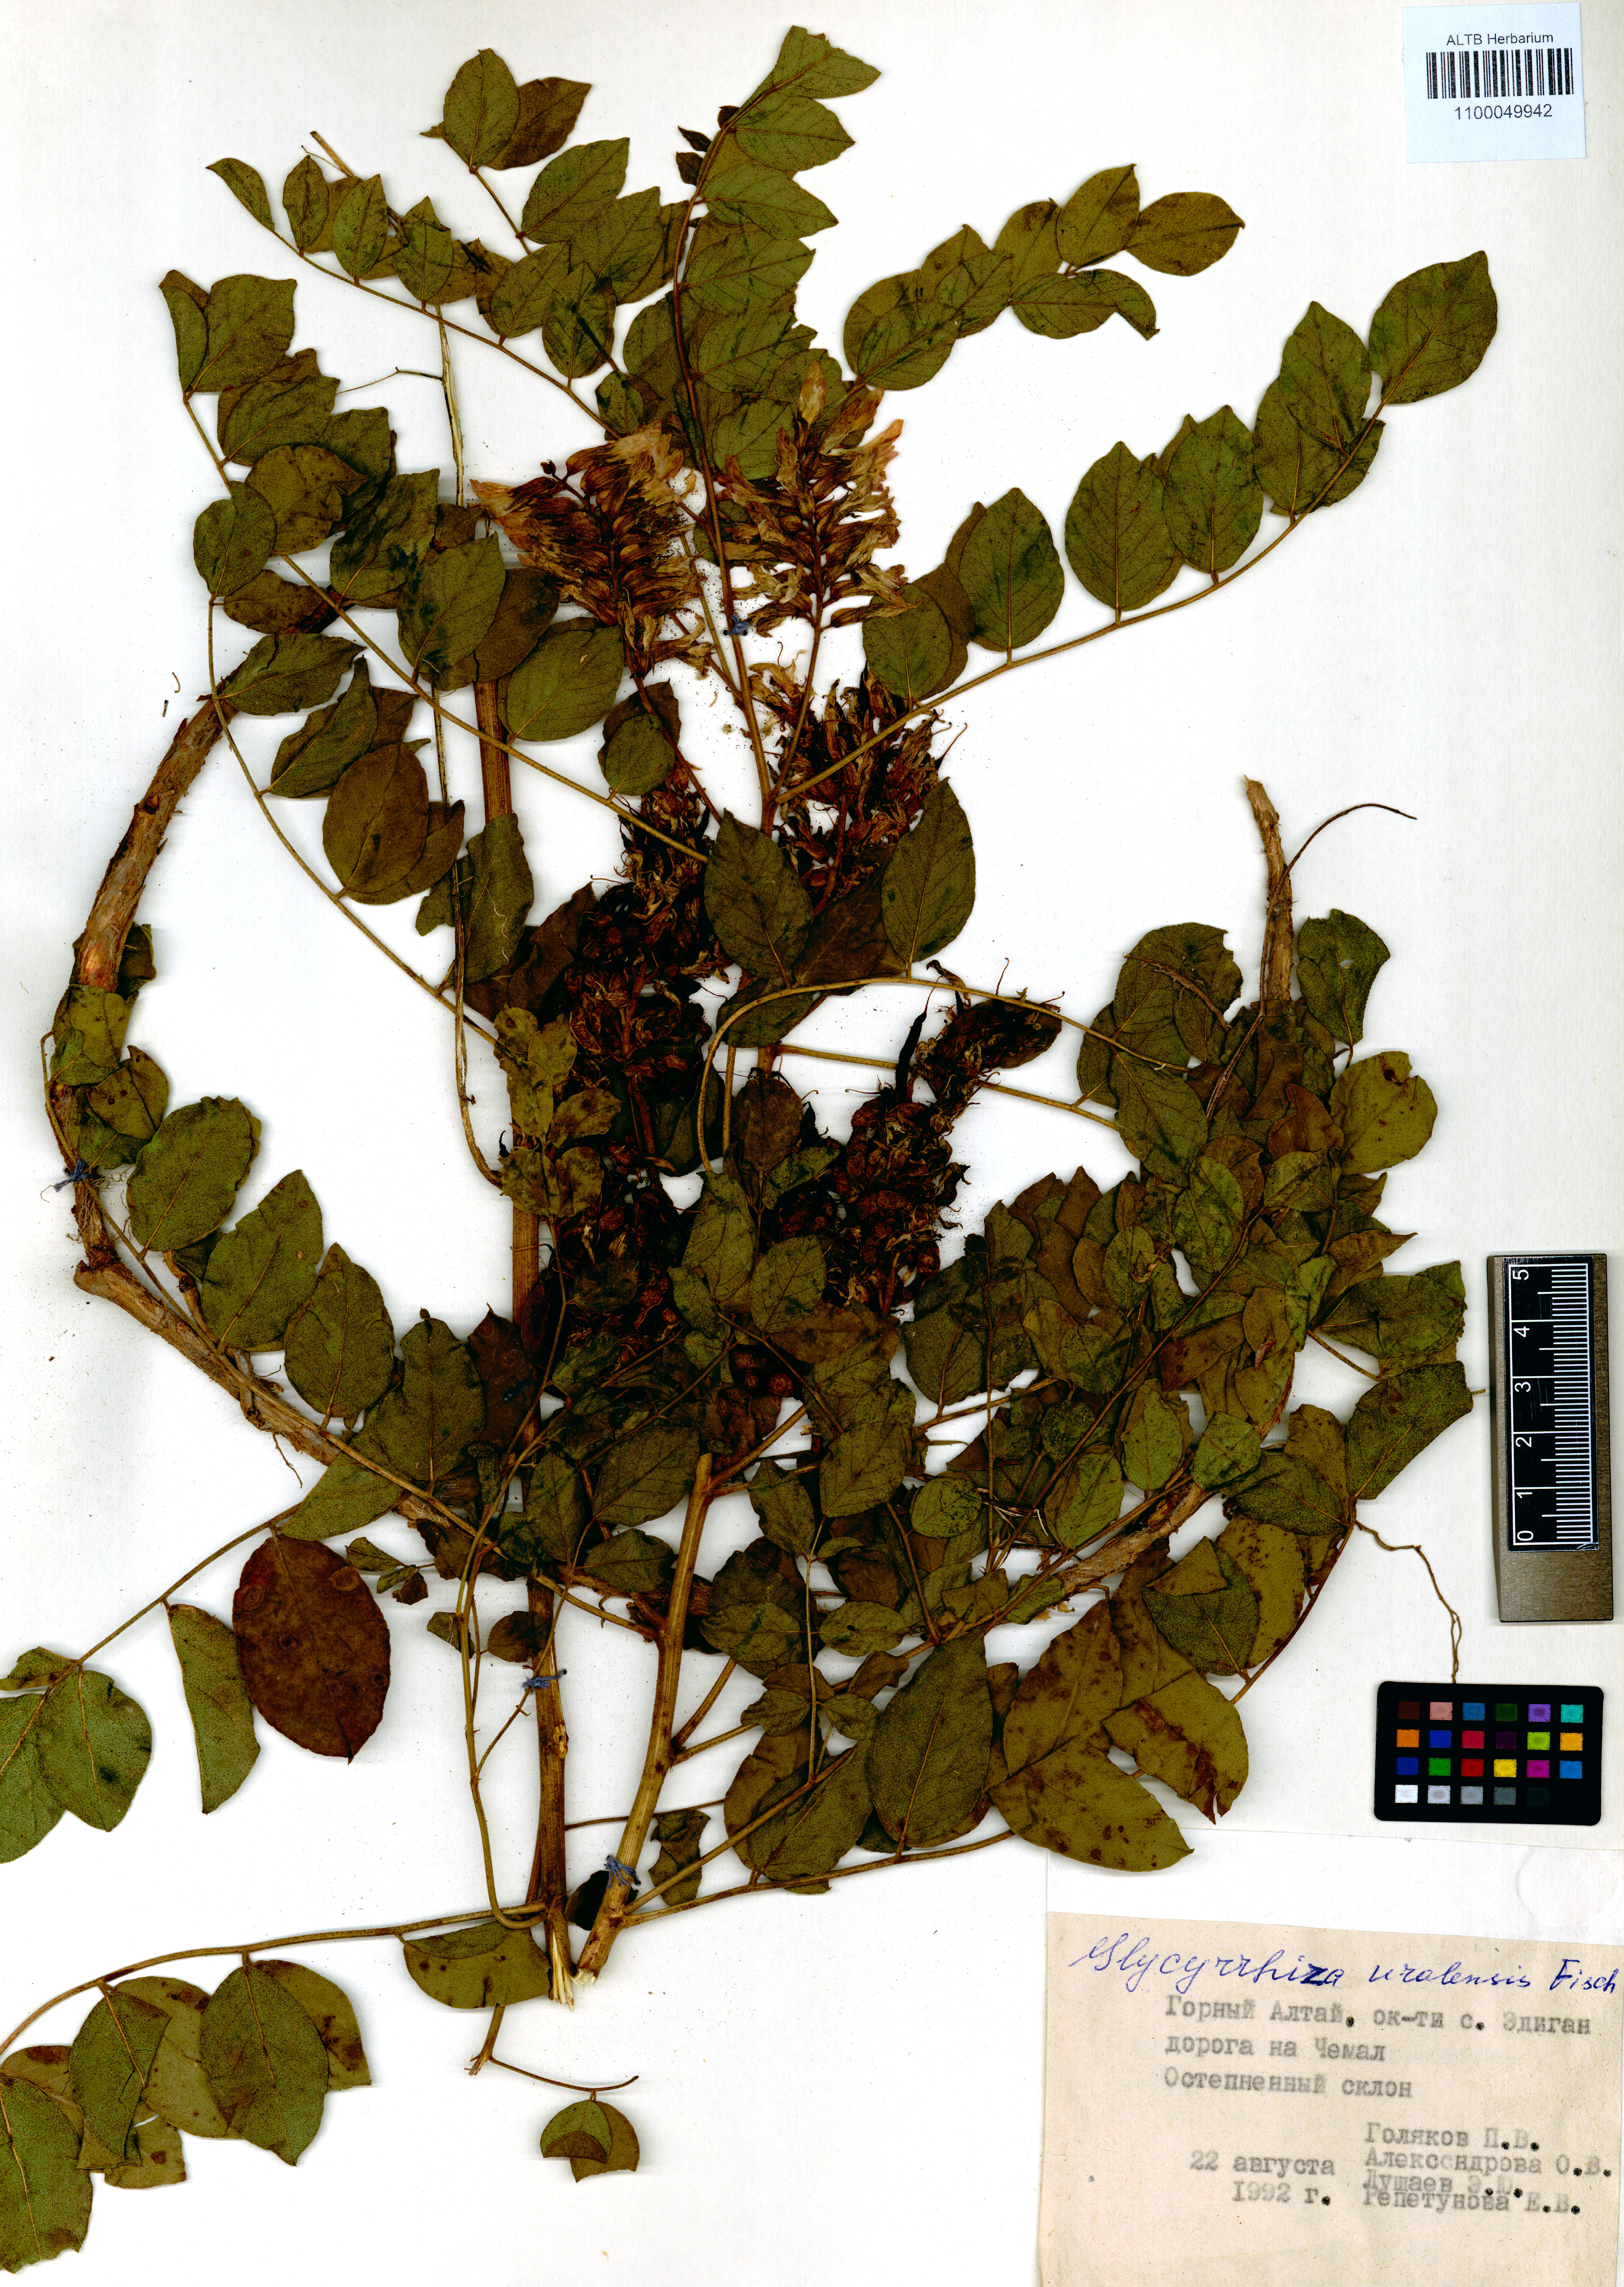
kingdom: Plantae
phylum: Tracheophyta
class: Magnoliopsida
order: Fabales
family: Fabaceae
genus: Glycyrrhiza
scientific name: Glycyrrhiza uralensis
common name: Chinese licorice
